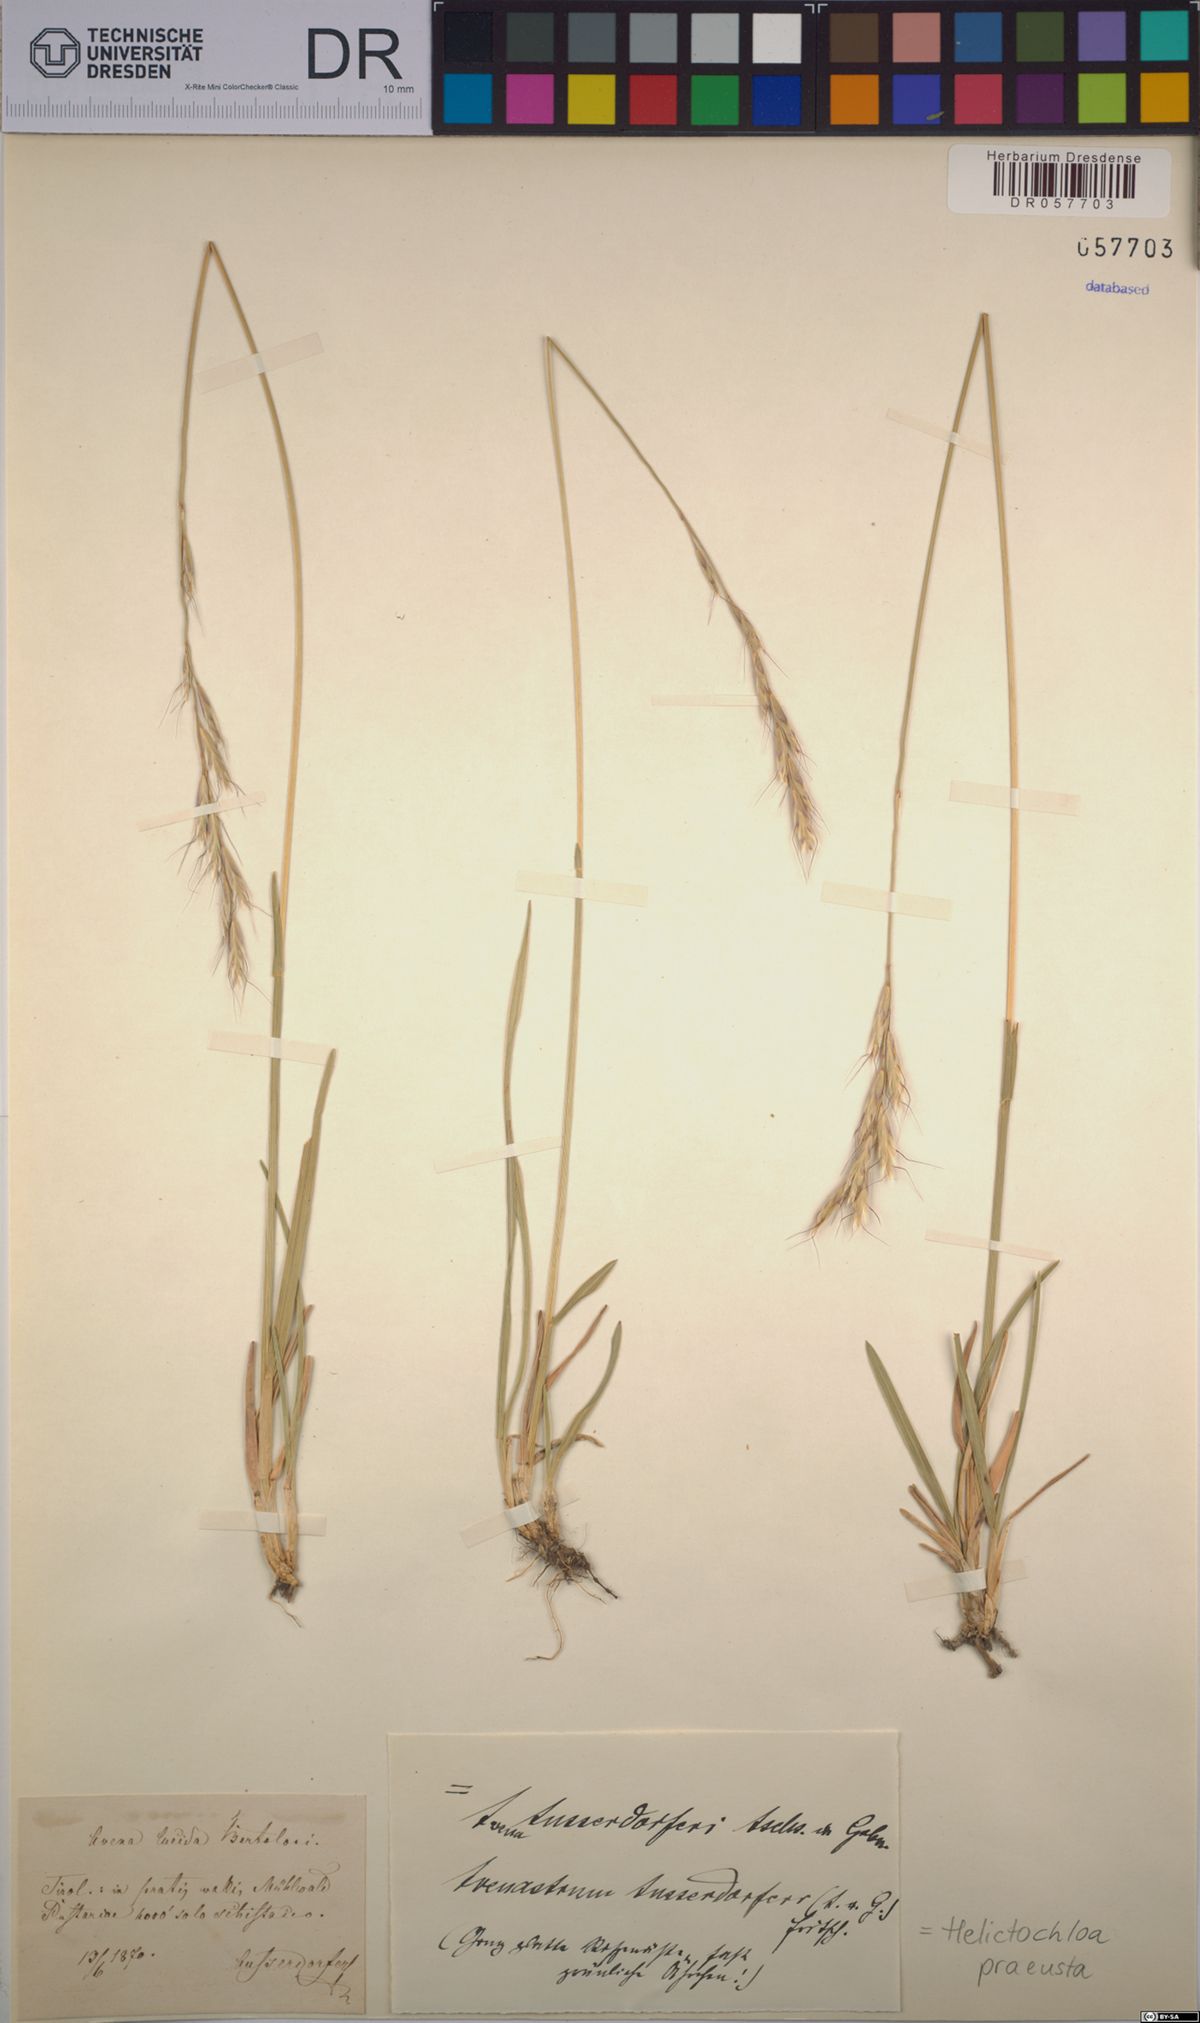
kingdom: Plantae
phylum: Tracheophyta
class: Liliopsida
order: Poales
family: Poaceae
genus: Helictochloa
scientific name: Helictochloa praeusta
